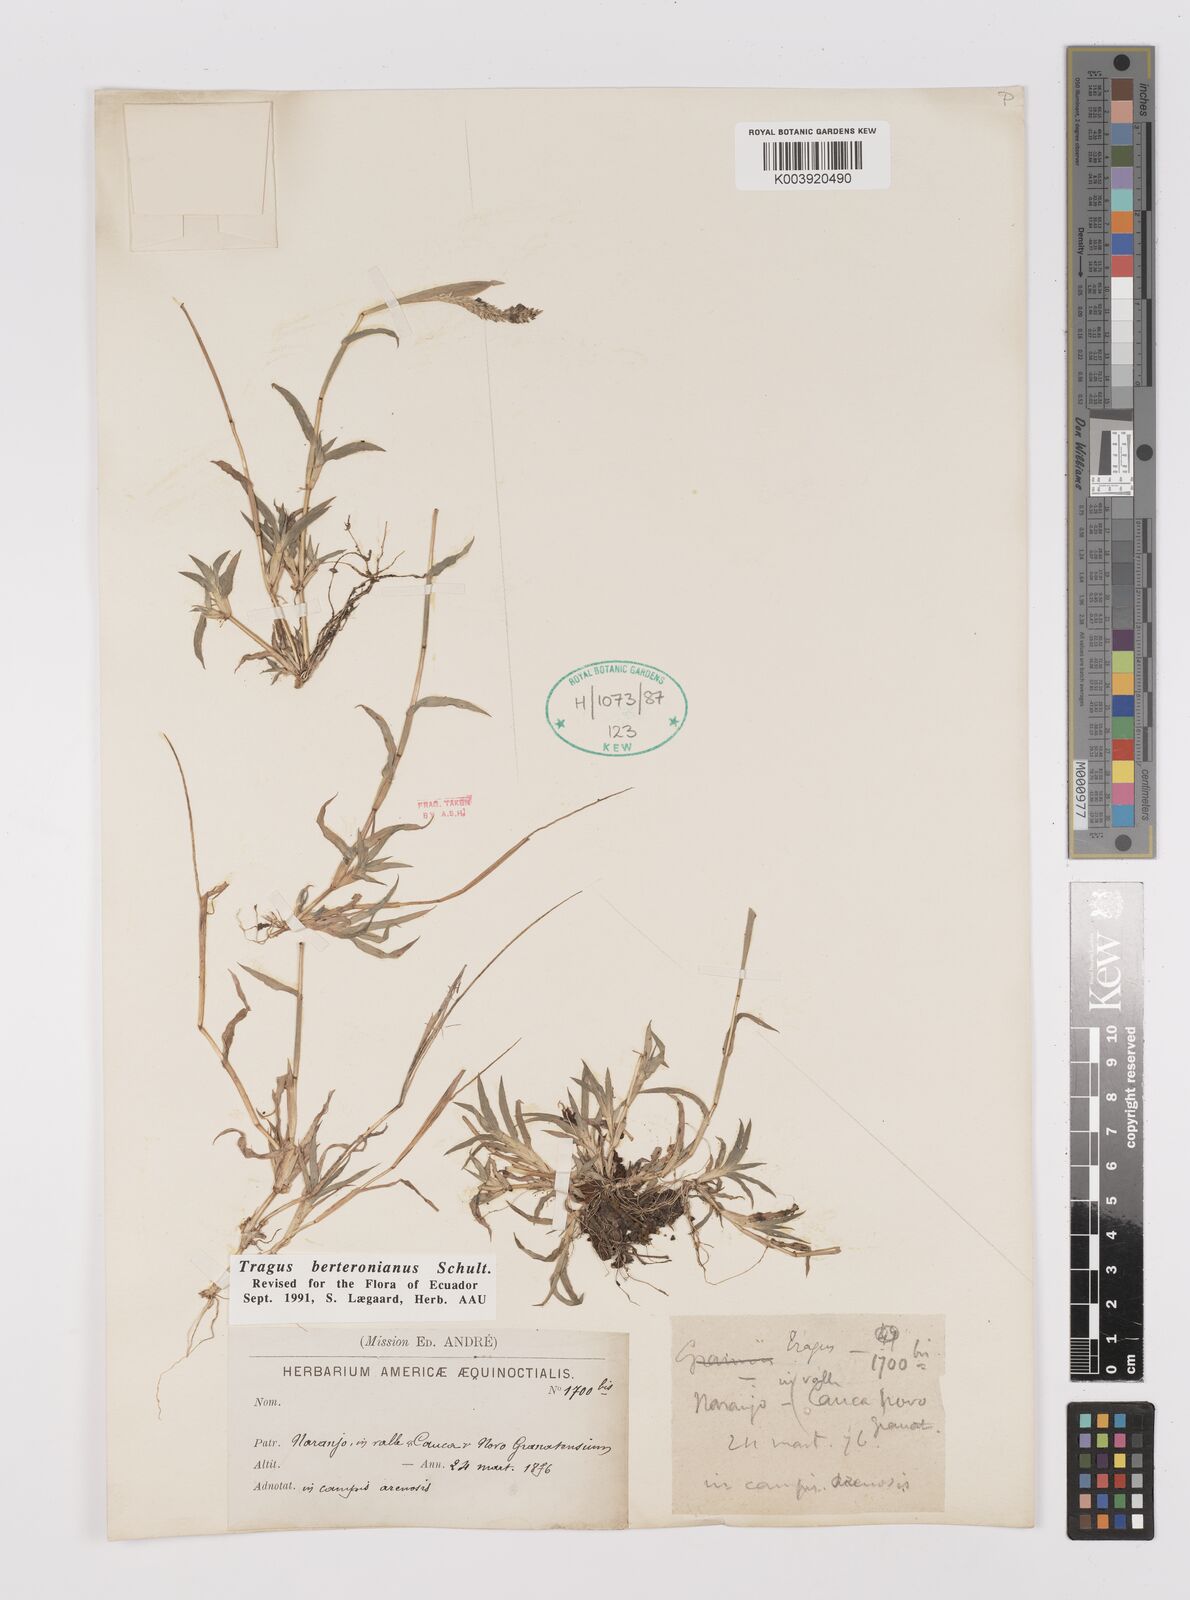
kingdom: Plantae
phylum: Tracheophyta
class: Liliopsida
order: Poales
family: Poaceae
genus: Tragus
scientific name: Tragus berteronianus
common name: African bur-grass
